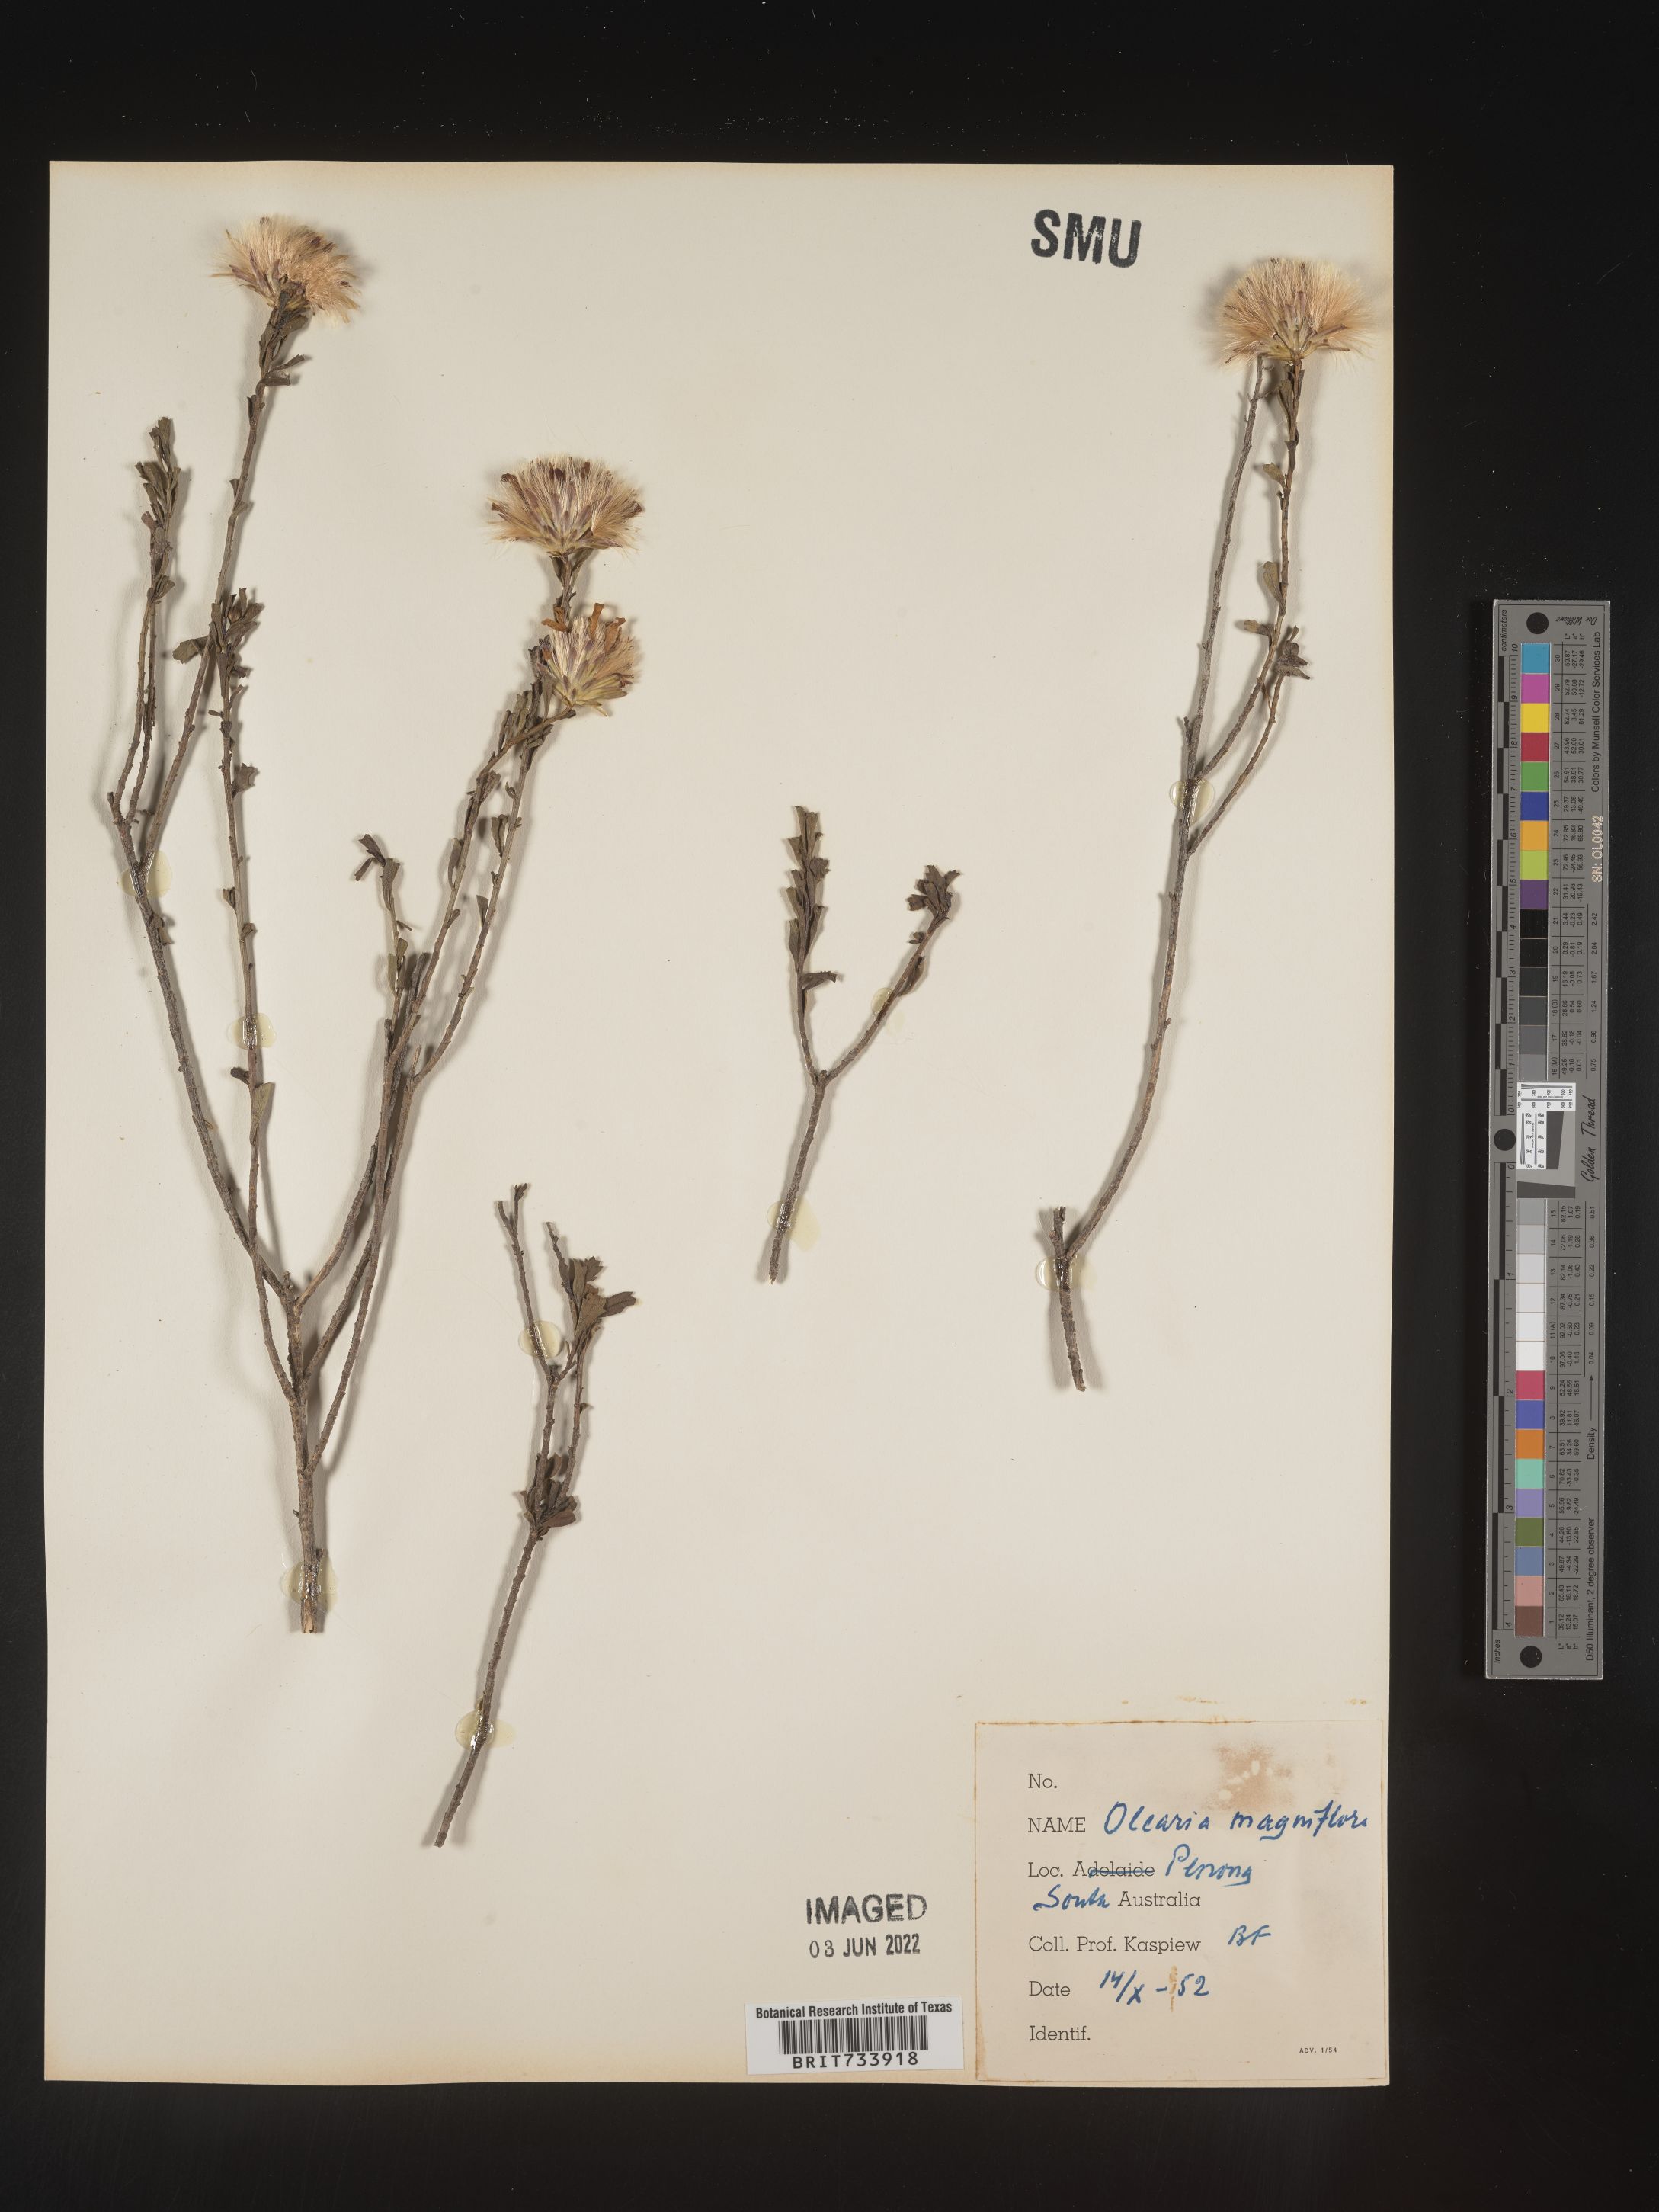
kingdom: Plantae
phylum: Tracheophyta
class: Magnoliopsida
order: Asterales
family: Asteraceae
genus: Olearia
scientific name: Olearia
